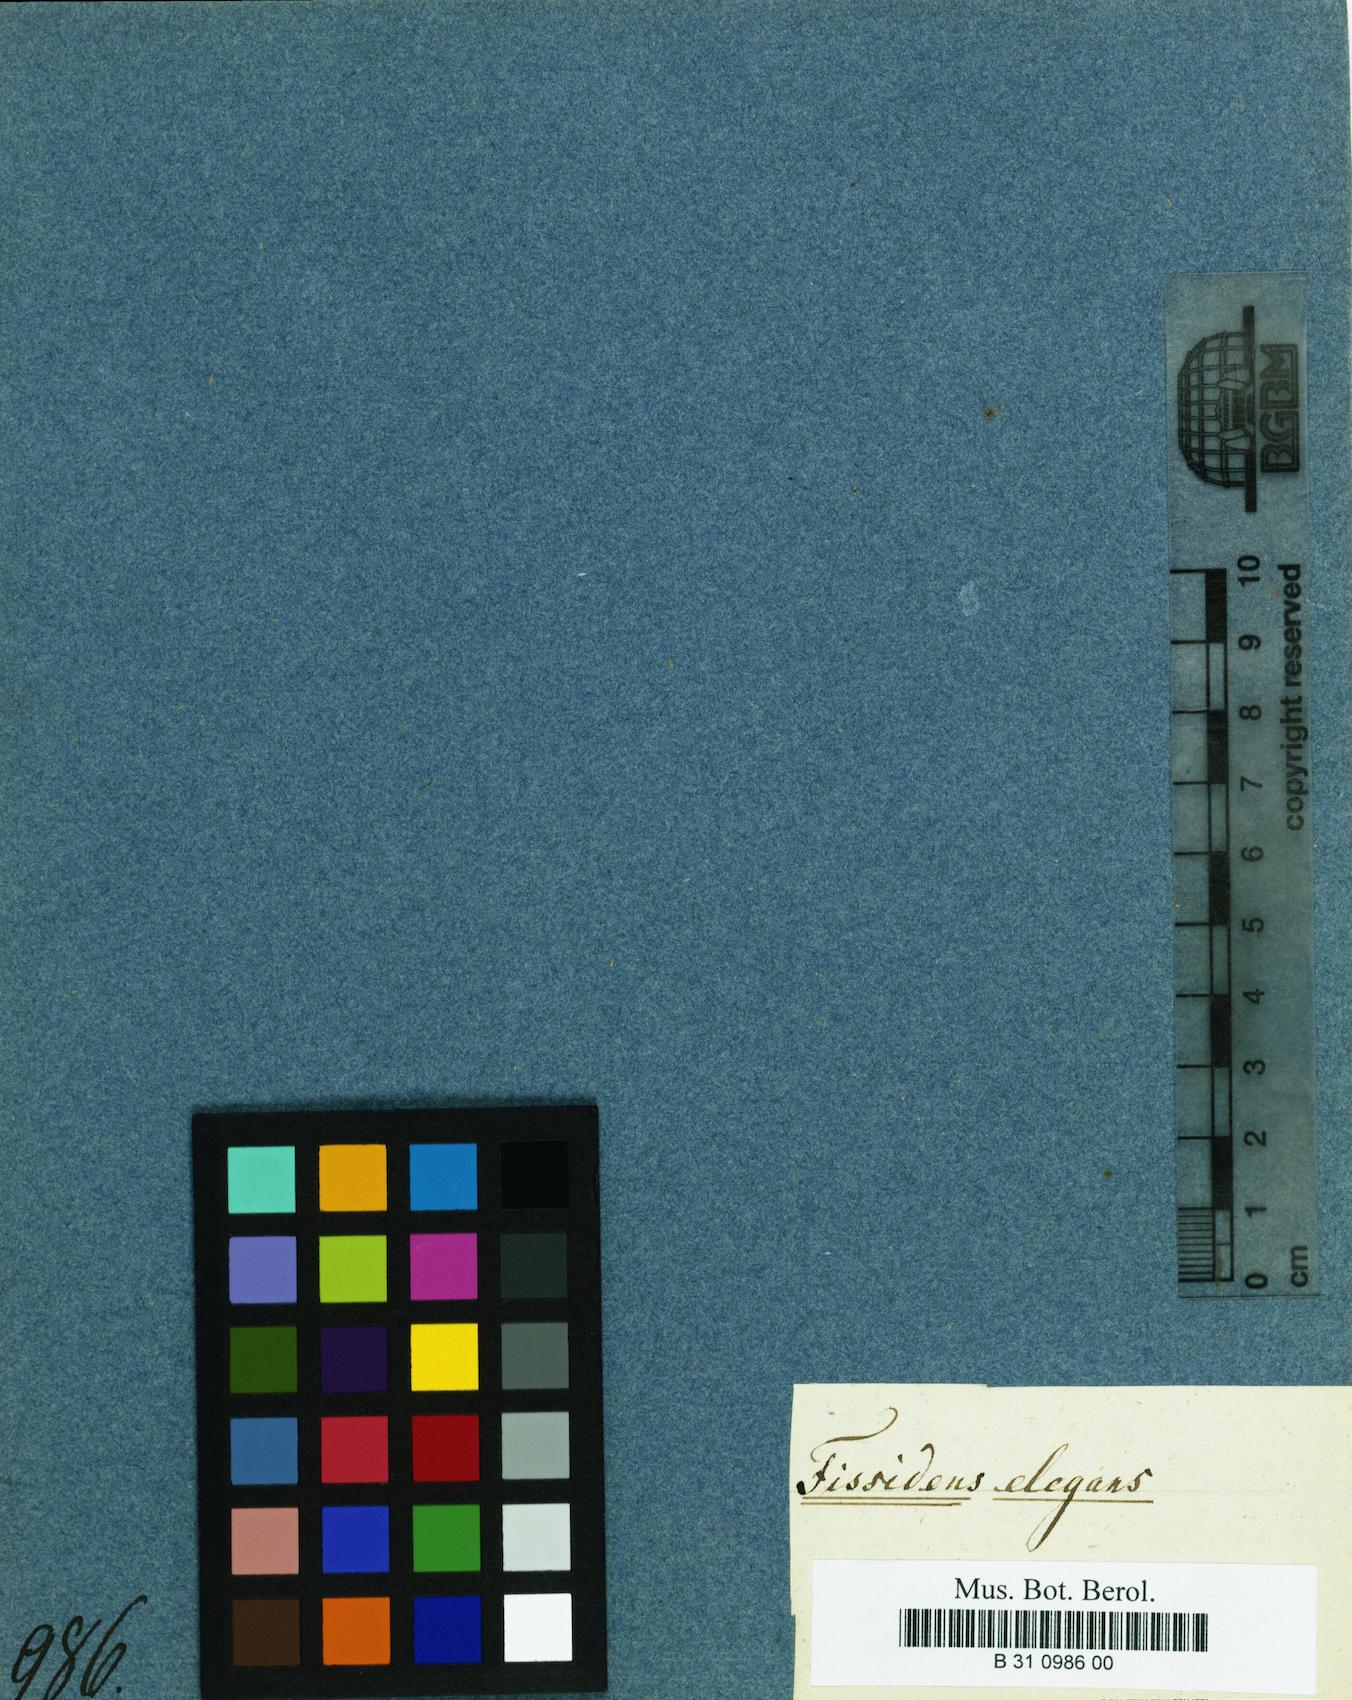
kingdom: Plantae
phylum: Bryophyta
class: Bryopsida
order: Dicranales
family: Fissidentaceae
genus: Fissidens
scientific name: Fissidens elegans
